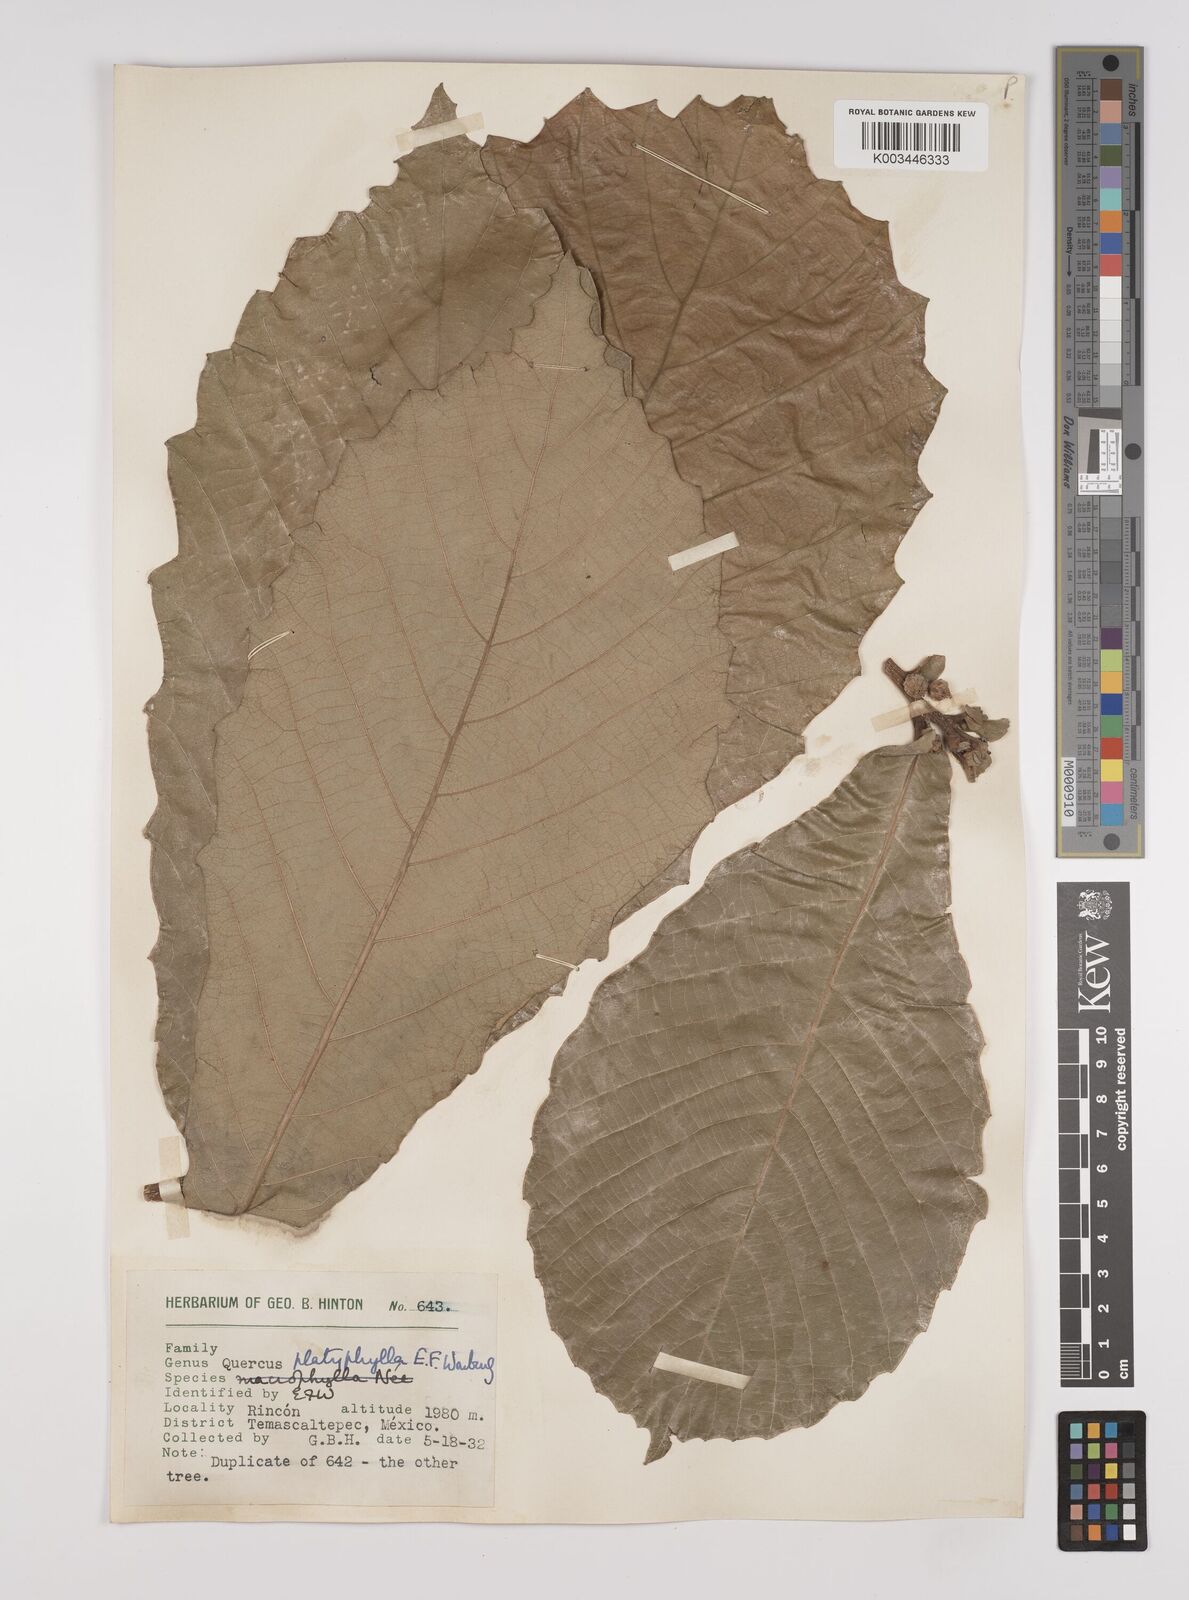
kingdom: Plantae
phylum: Tracheophyta
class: Magnoliopsida
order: Fagales
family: Fagaceae
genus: Quercus
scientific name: Quercus
